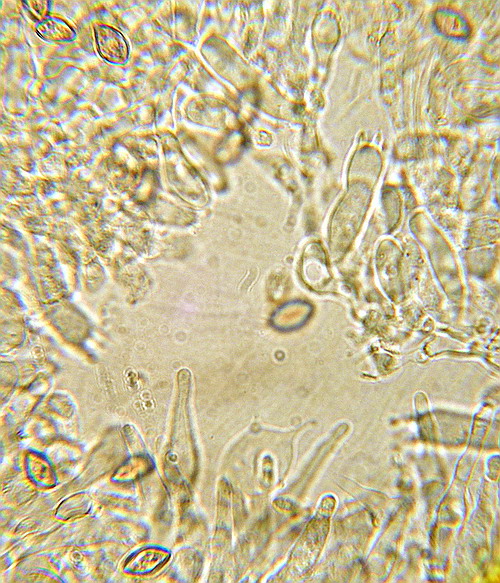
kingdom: Fungi
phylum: Basidiomycota
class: Agaricomycetes
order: Agaricales
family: Strophariaceae
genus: Deconica
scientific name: Deconica inquilina
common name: græs-stråhat
